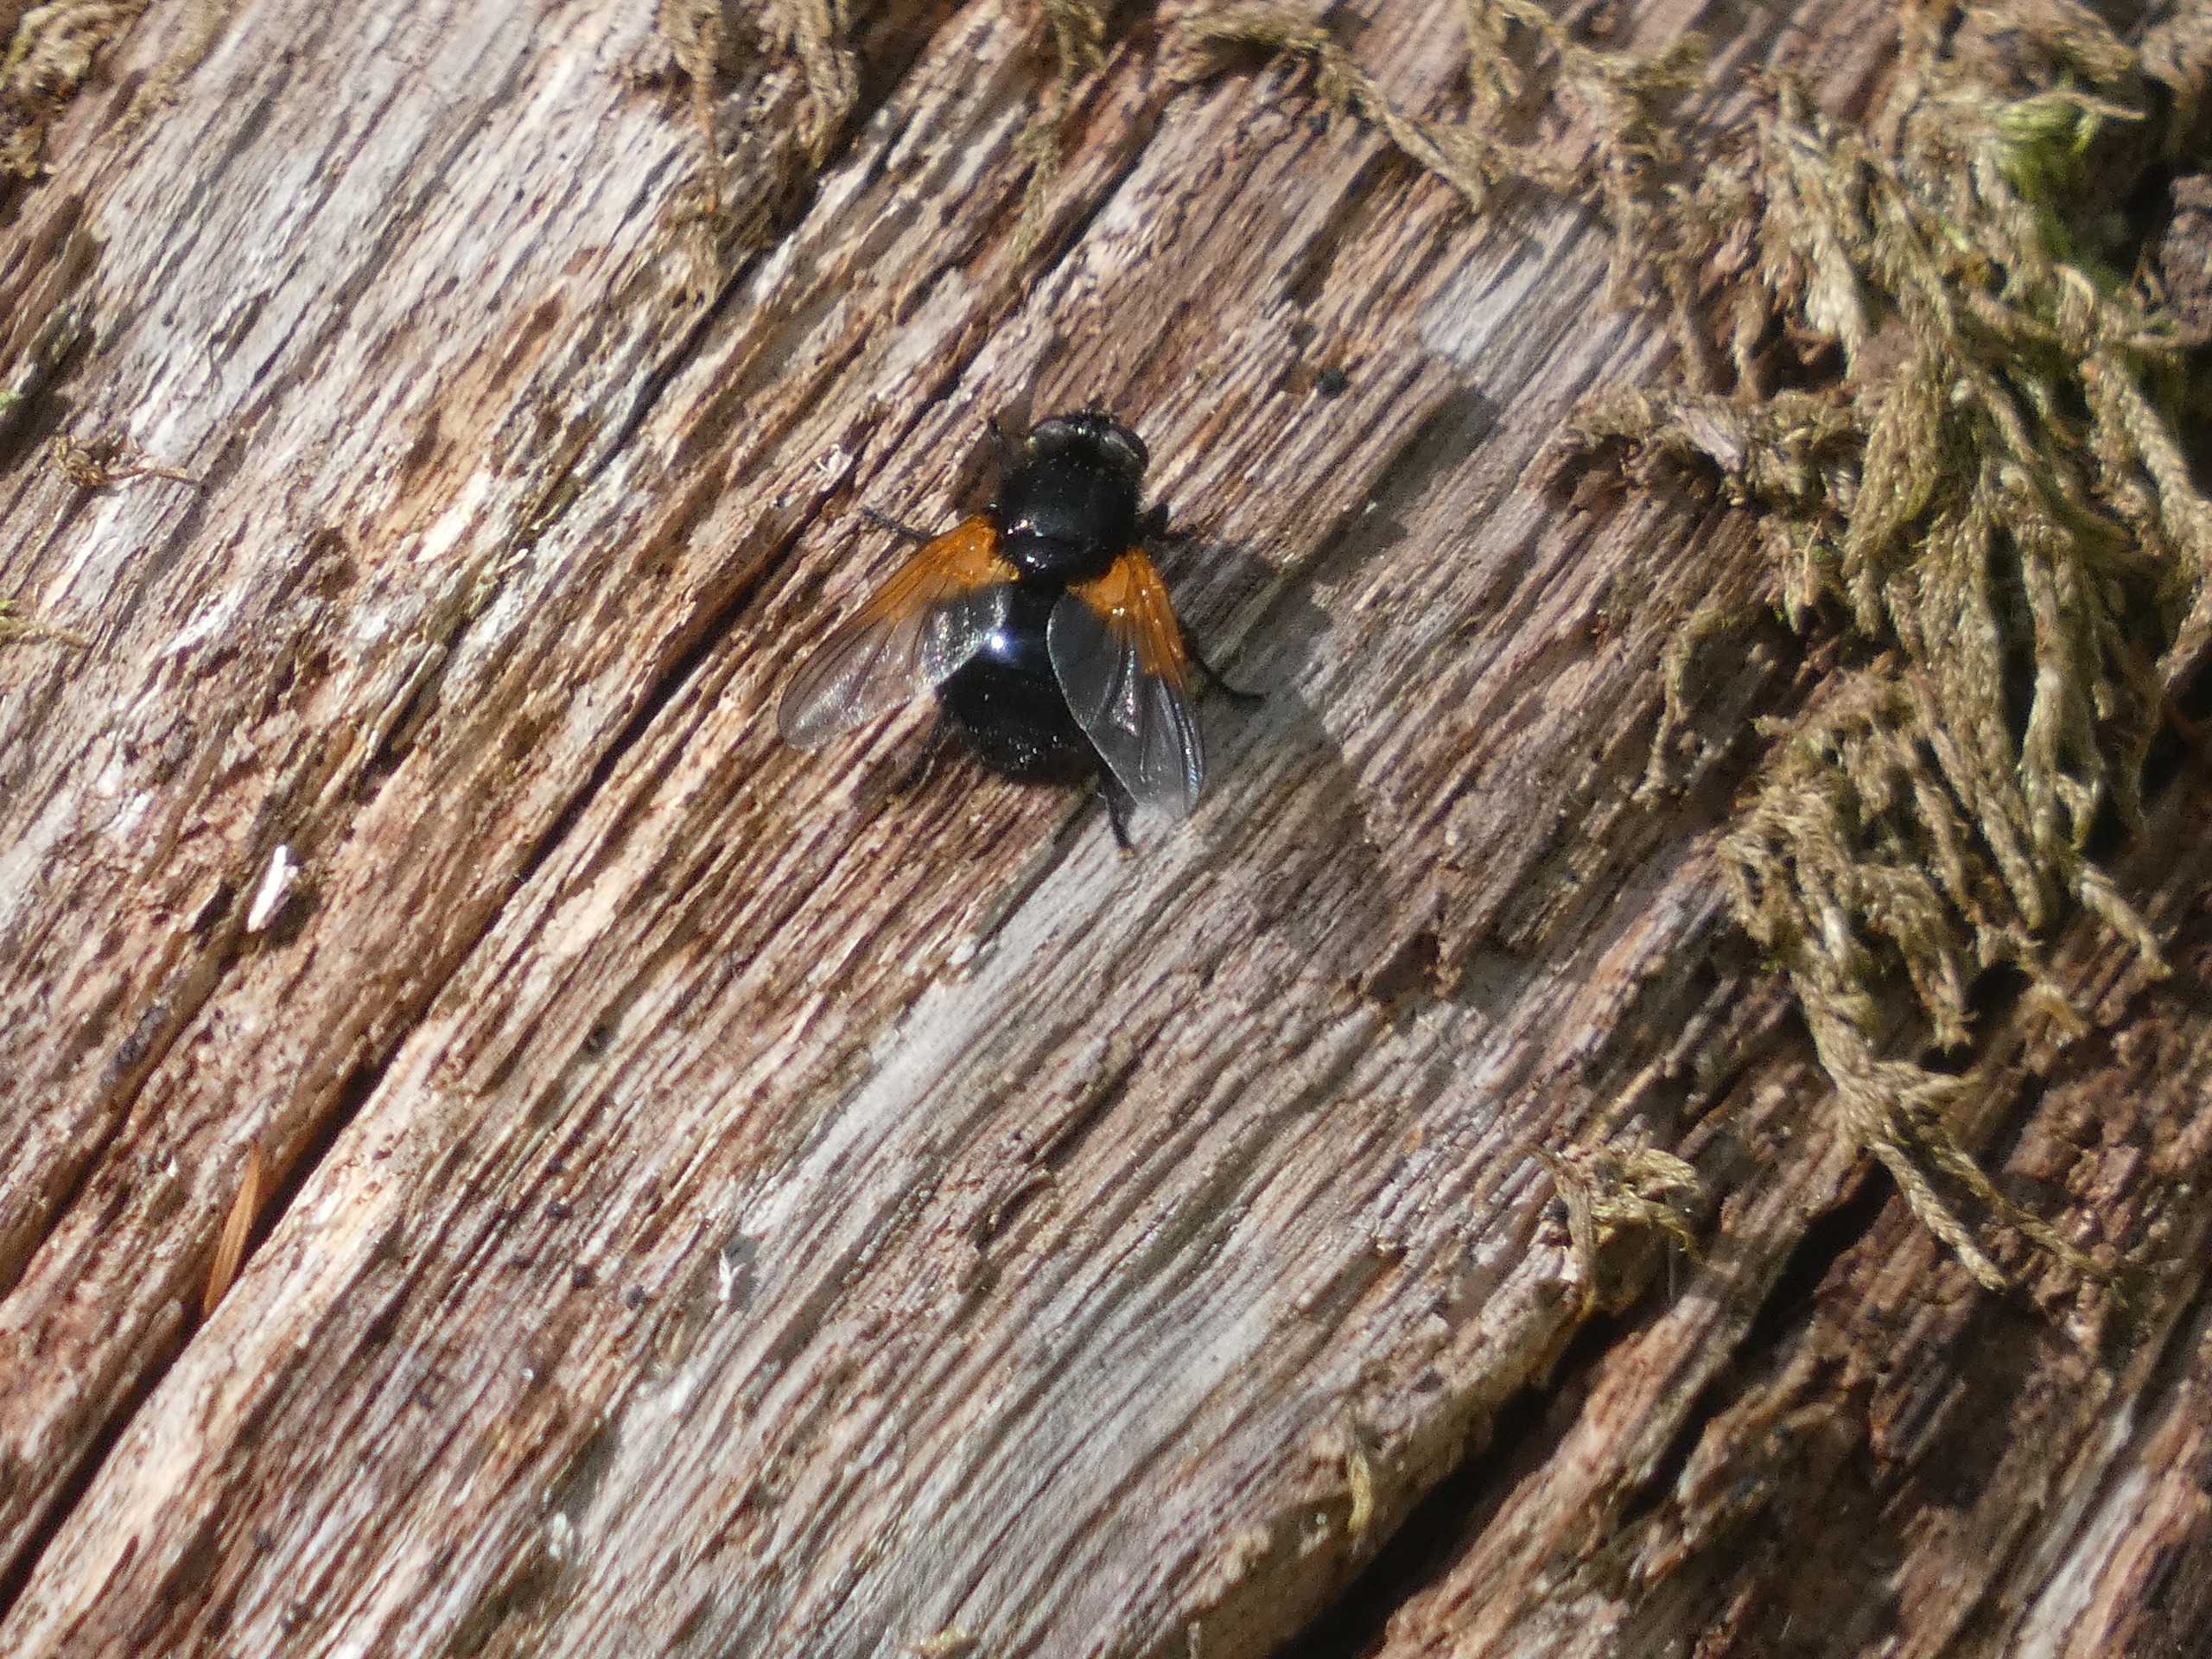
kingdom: Animalia
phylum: Arthropoda
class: Insecta
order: Diptera
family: Muscidae
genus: Mesembrina
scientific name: Mesembrina meridiana
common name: Gulvinget flue
